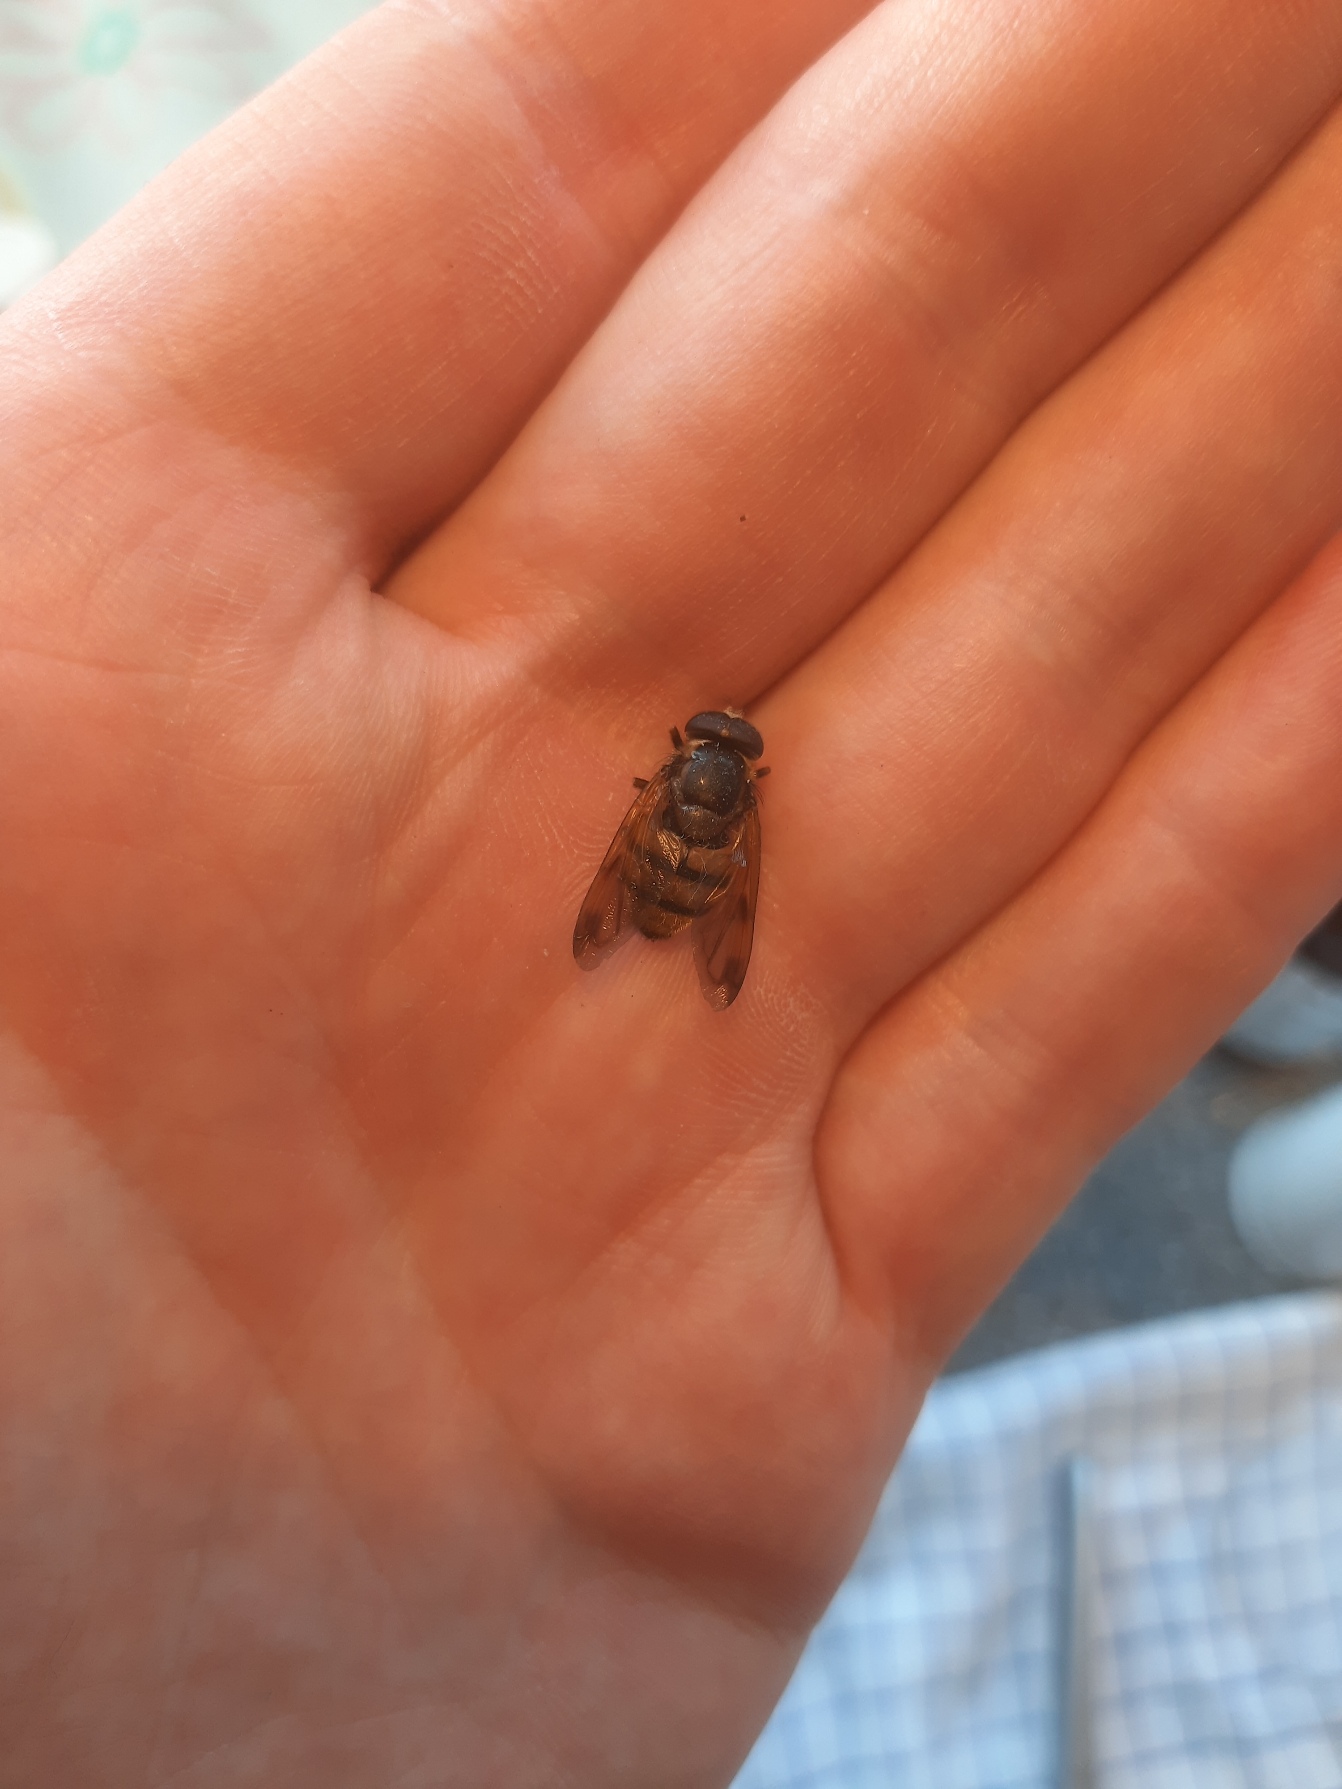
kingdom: Animalia
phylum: Arthropoda
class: Insecta
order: Diptera
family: Syrphidae
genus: Volucella
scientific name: Volucella inanis
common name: Gul humlesvirreflue
